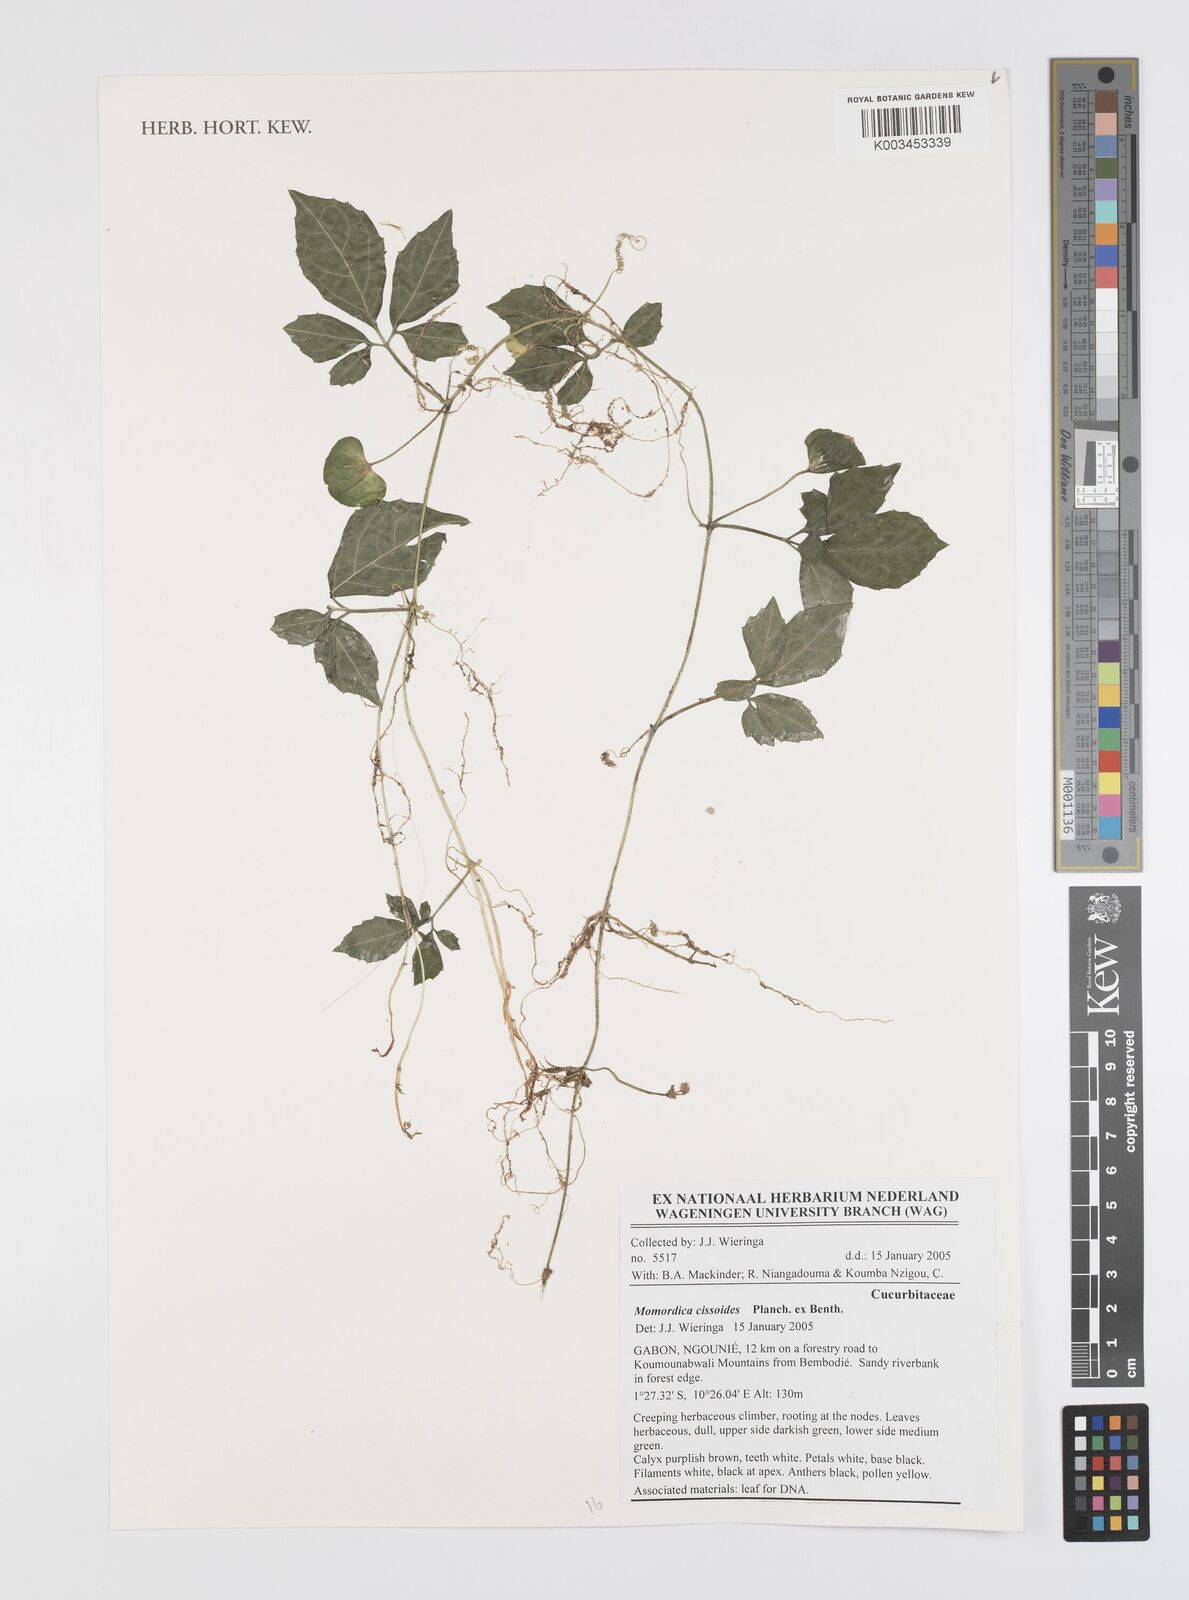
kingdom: Plantae
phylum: Tracheophyta
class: Magnoliopsida
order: Cucurbitales
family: Cucurbitaceae
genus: Momordica
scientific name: Momordica cissoides
